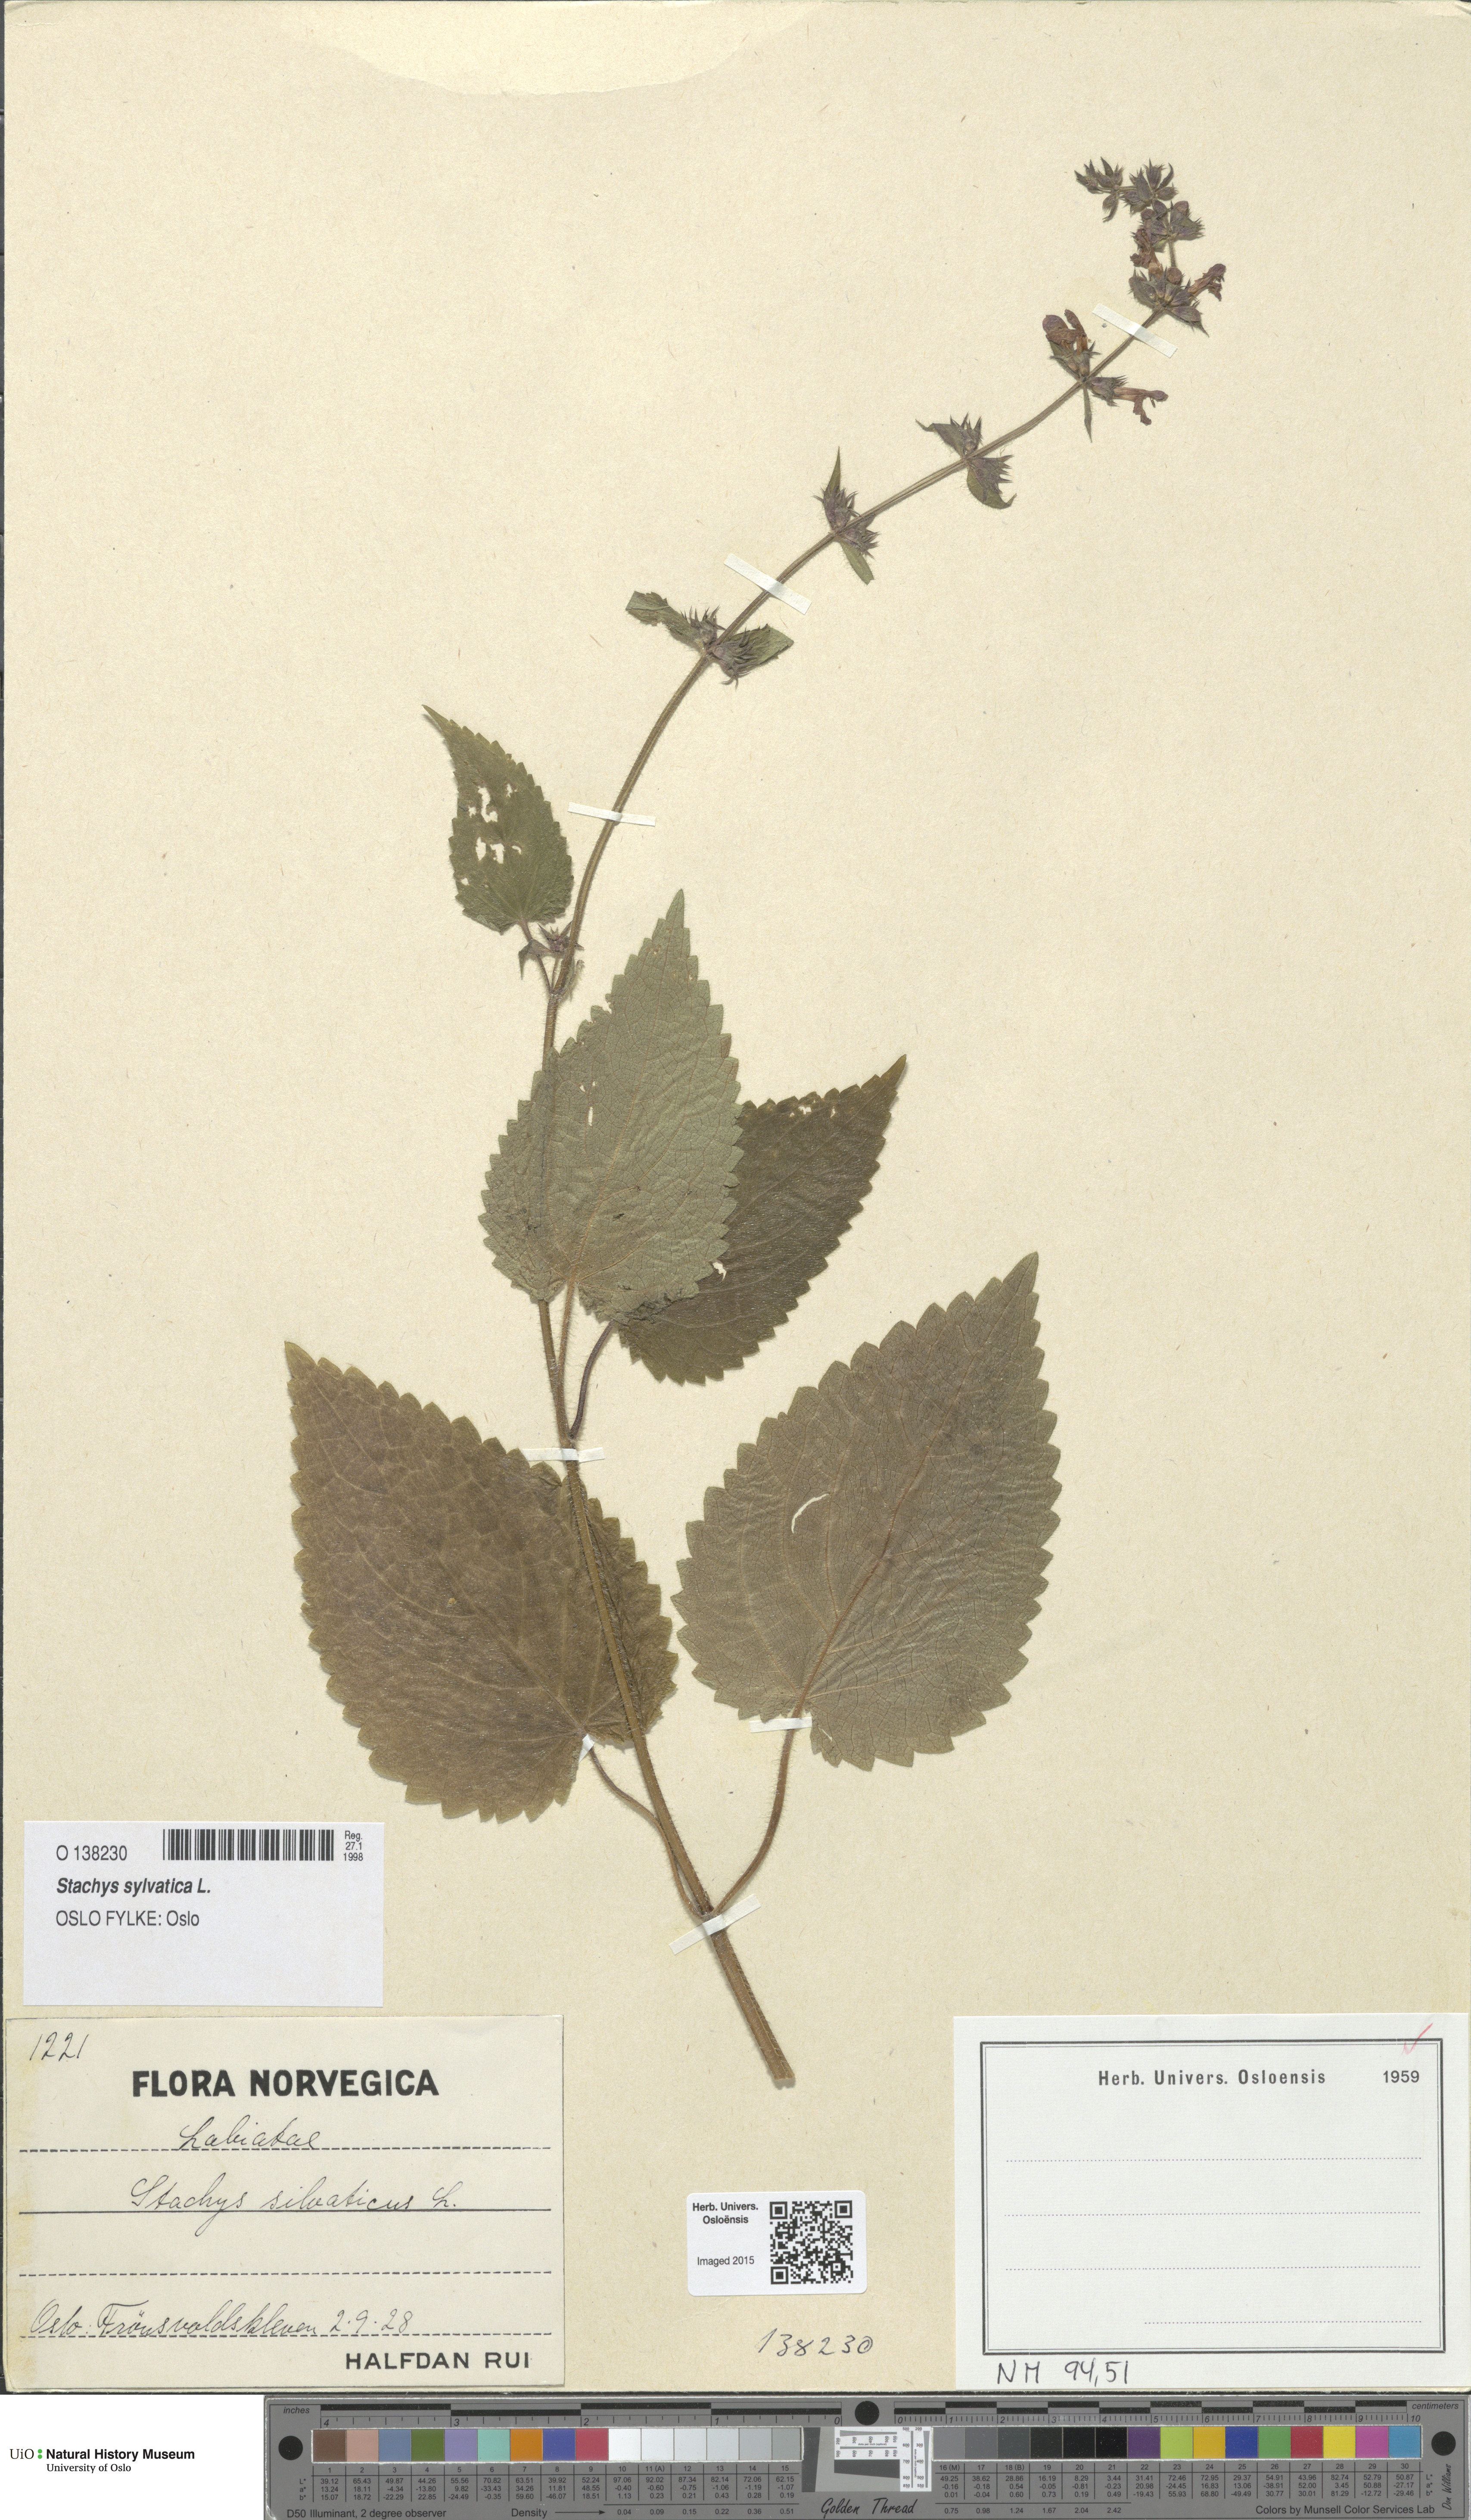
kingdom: Plantae
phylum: Tracheophyta
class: Magnoliopsida
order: Lamiales
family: Lamiaceae
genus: Stachys
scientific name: Stachys sylvatica
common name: Hedge woundwort
